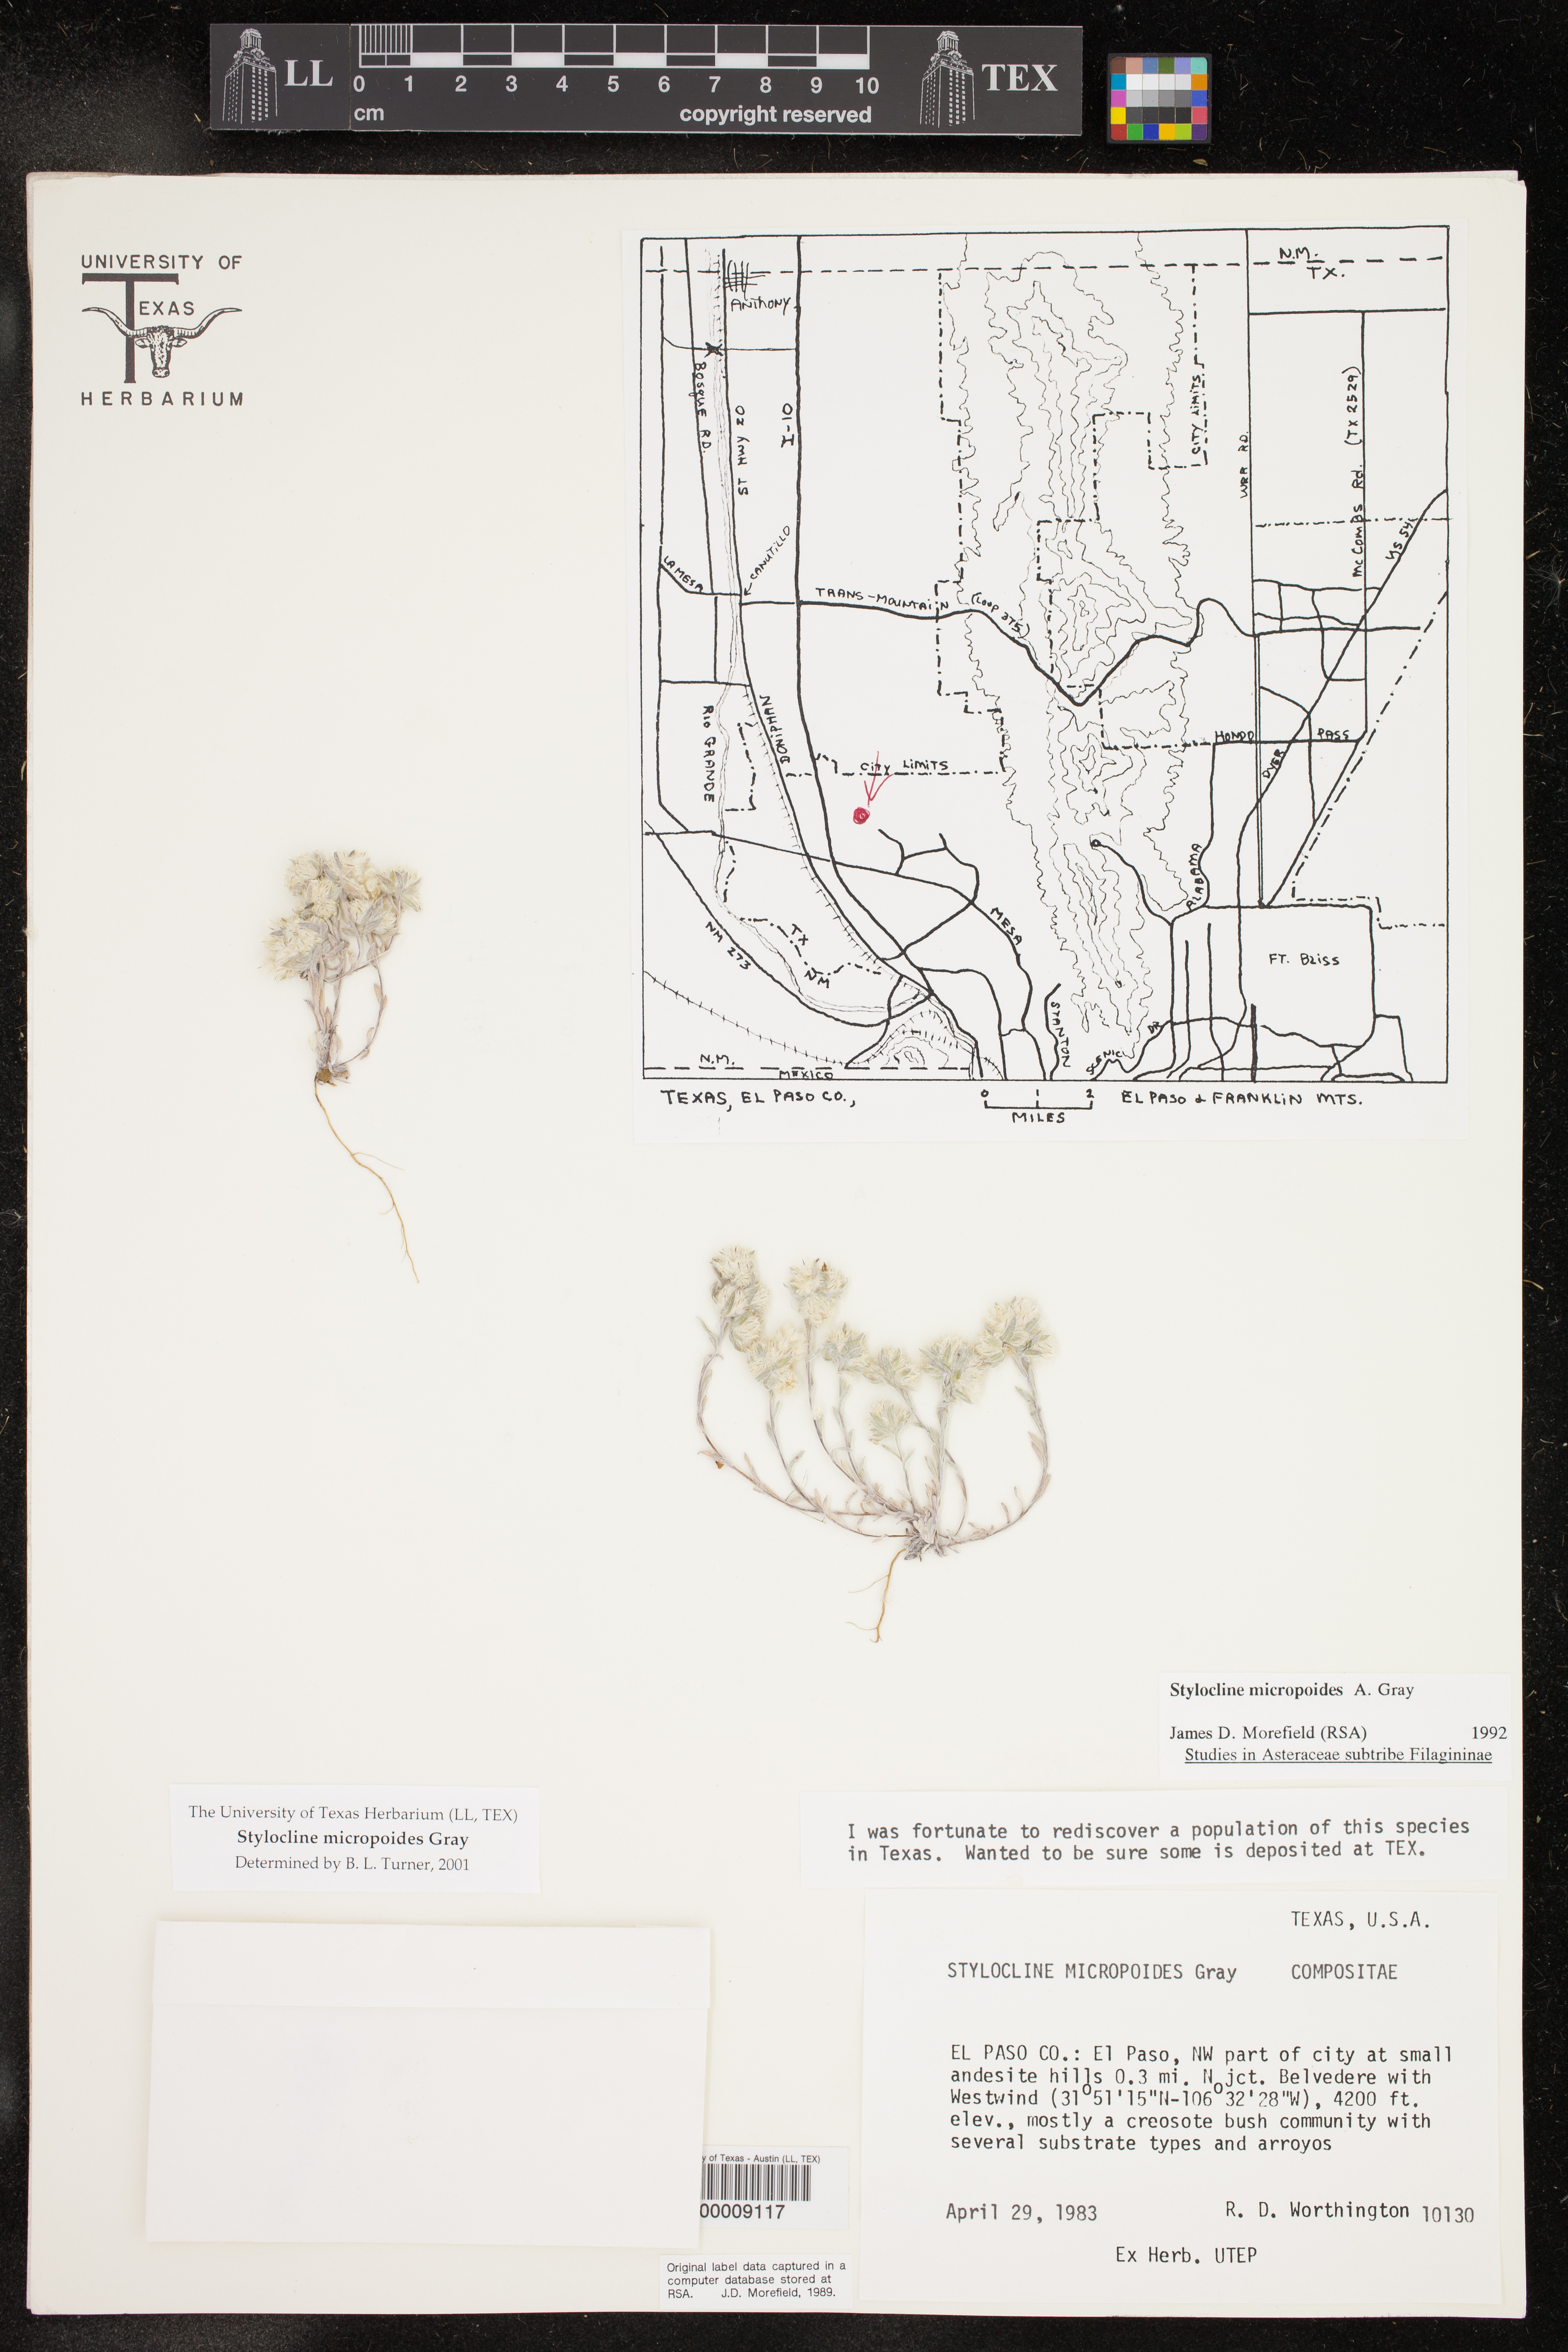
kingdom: Plantae
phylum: Tracheophyta
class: Magnoliopsida
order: Asterales
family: Asteraceae
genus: Stylocline
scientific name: Stylocline micropoides
